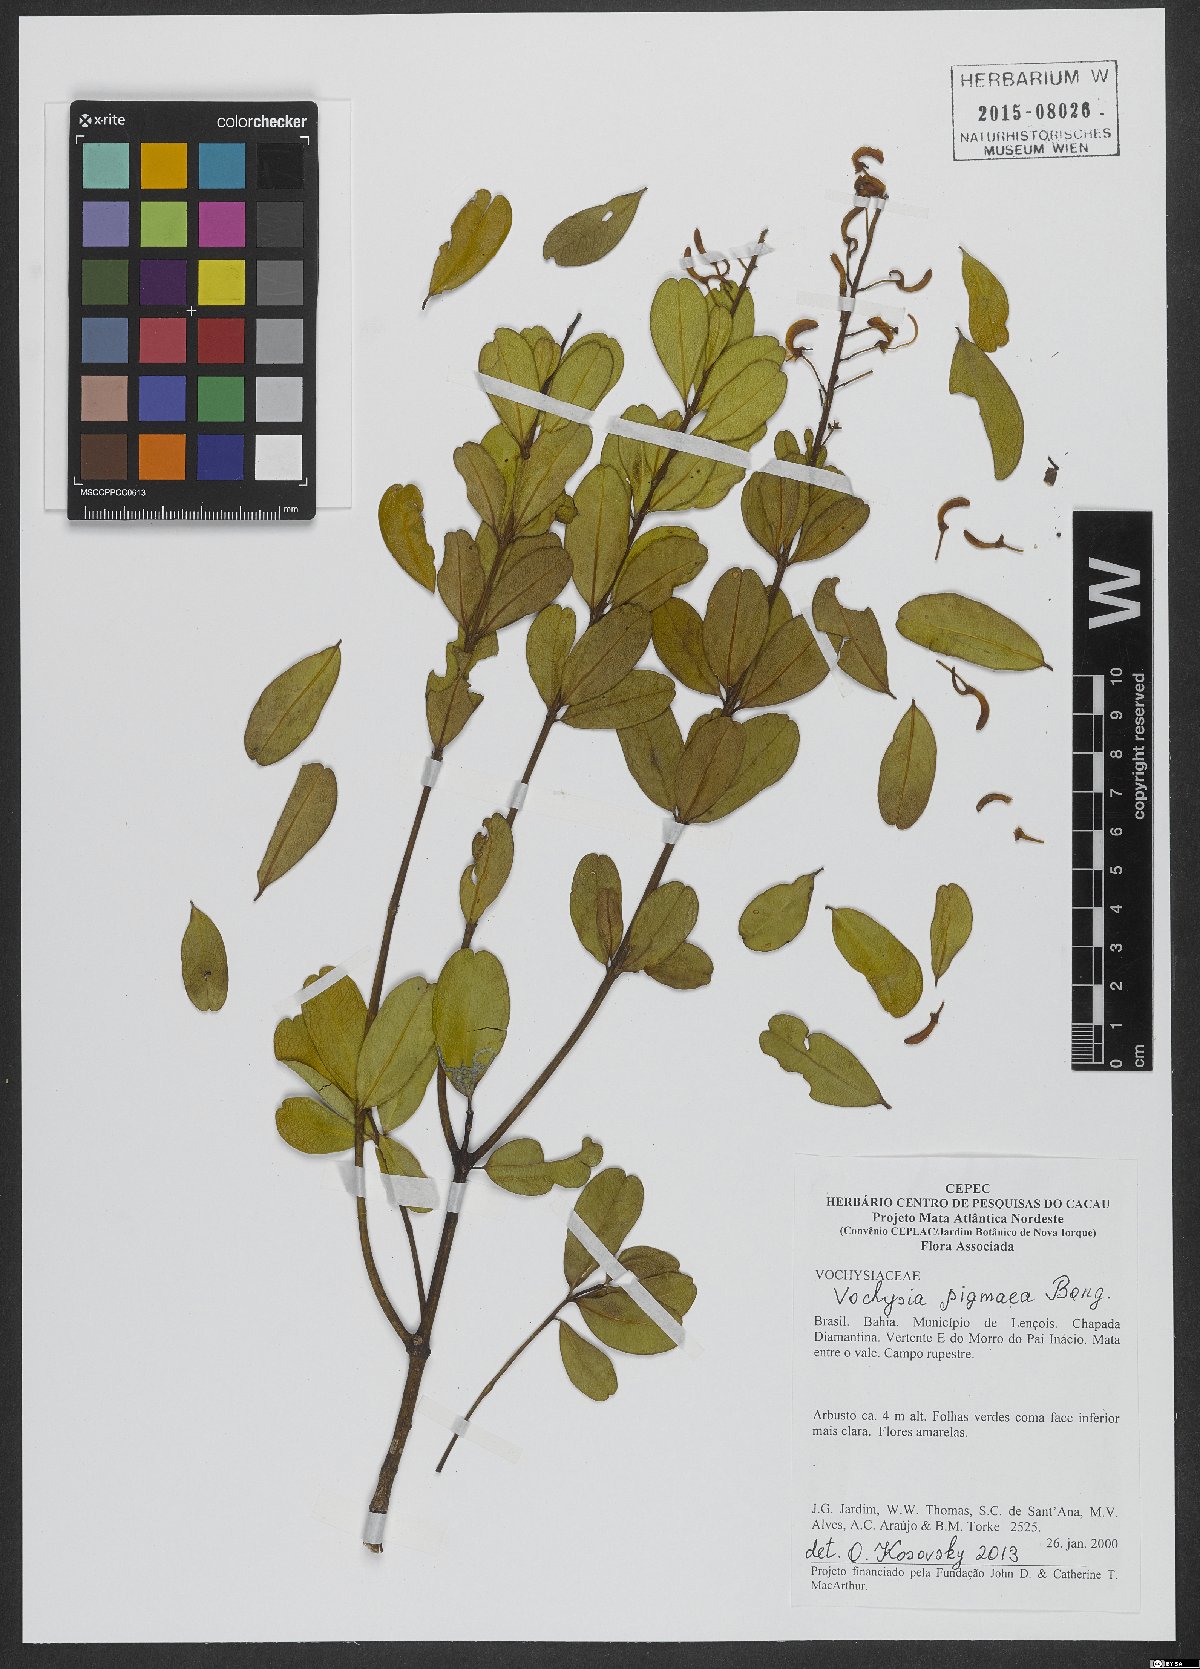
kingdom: Plantae
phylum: Tracheophyta
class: Magnoliopsida
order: Myrtales
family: Vochysiaceae
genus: Vochysia
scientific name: Vochysia pygmaea
